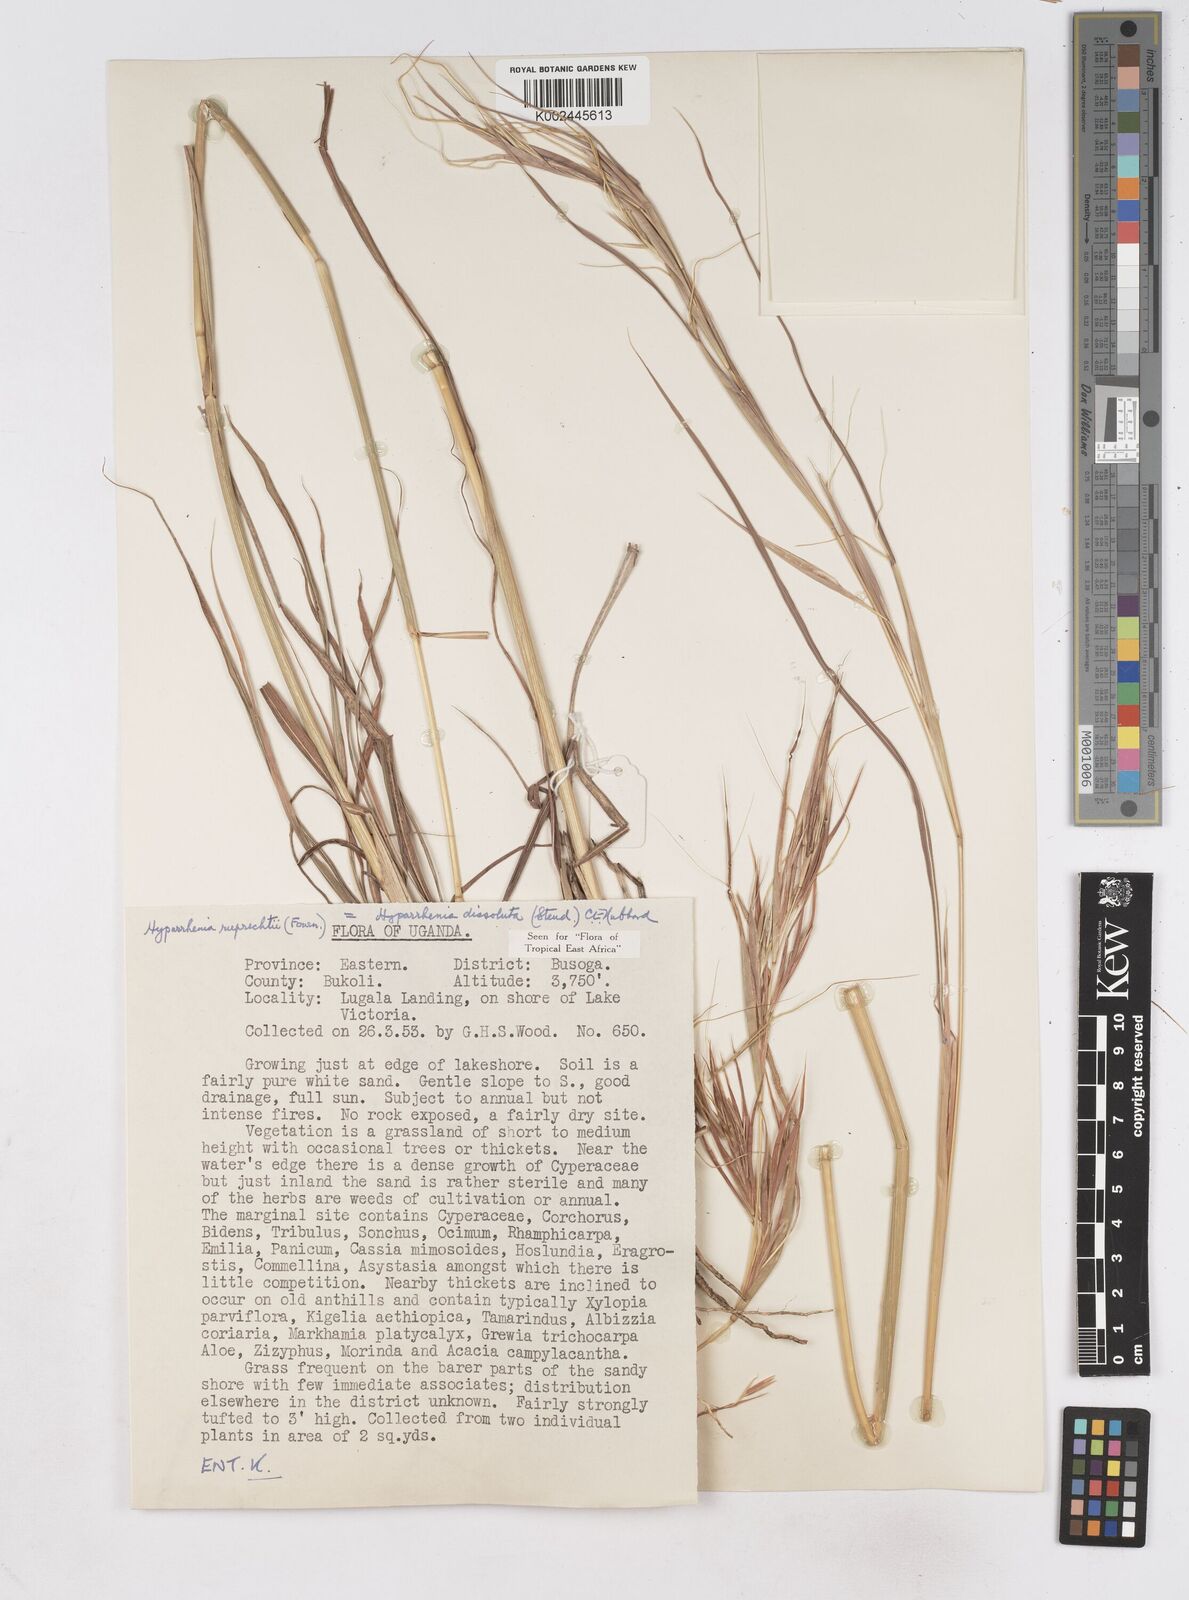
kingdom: Plantae
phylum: Tracheophyta
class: Liliopsida
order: Poales
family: Poaceae
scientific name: Poaceae
